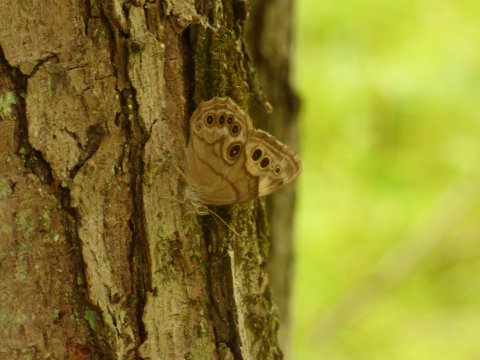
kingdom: Animalia
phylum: Arthropoda
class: Insecta
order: Lepidoptera
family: Nymphalidae
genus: Lethe
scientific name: Lethe anthedon
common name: Northern Pearly-Eye
